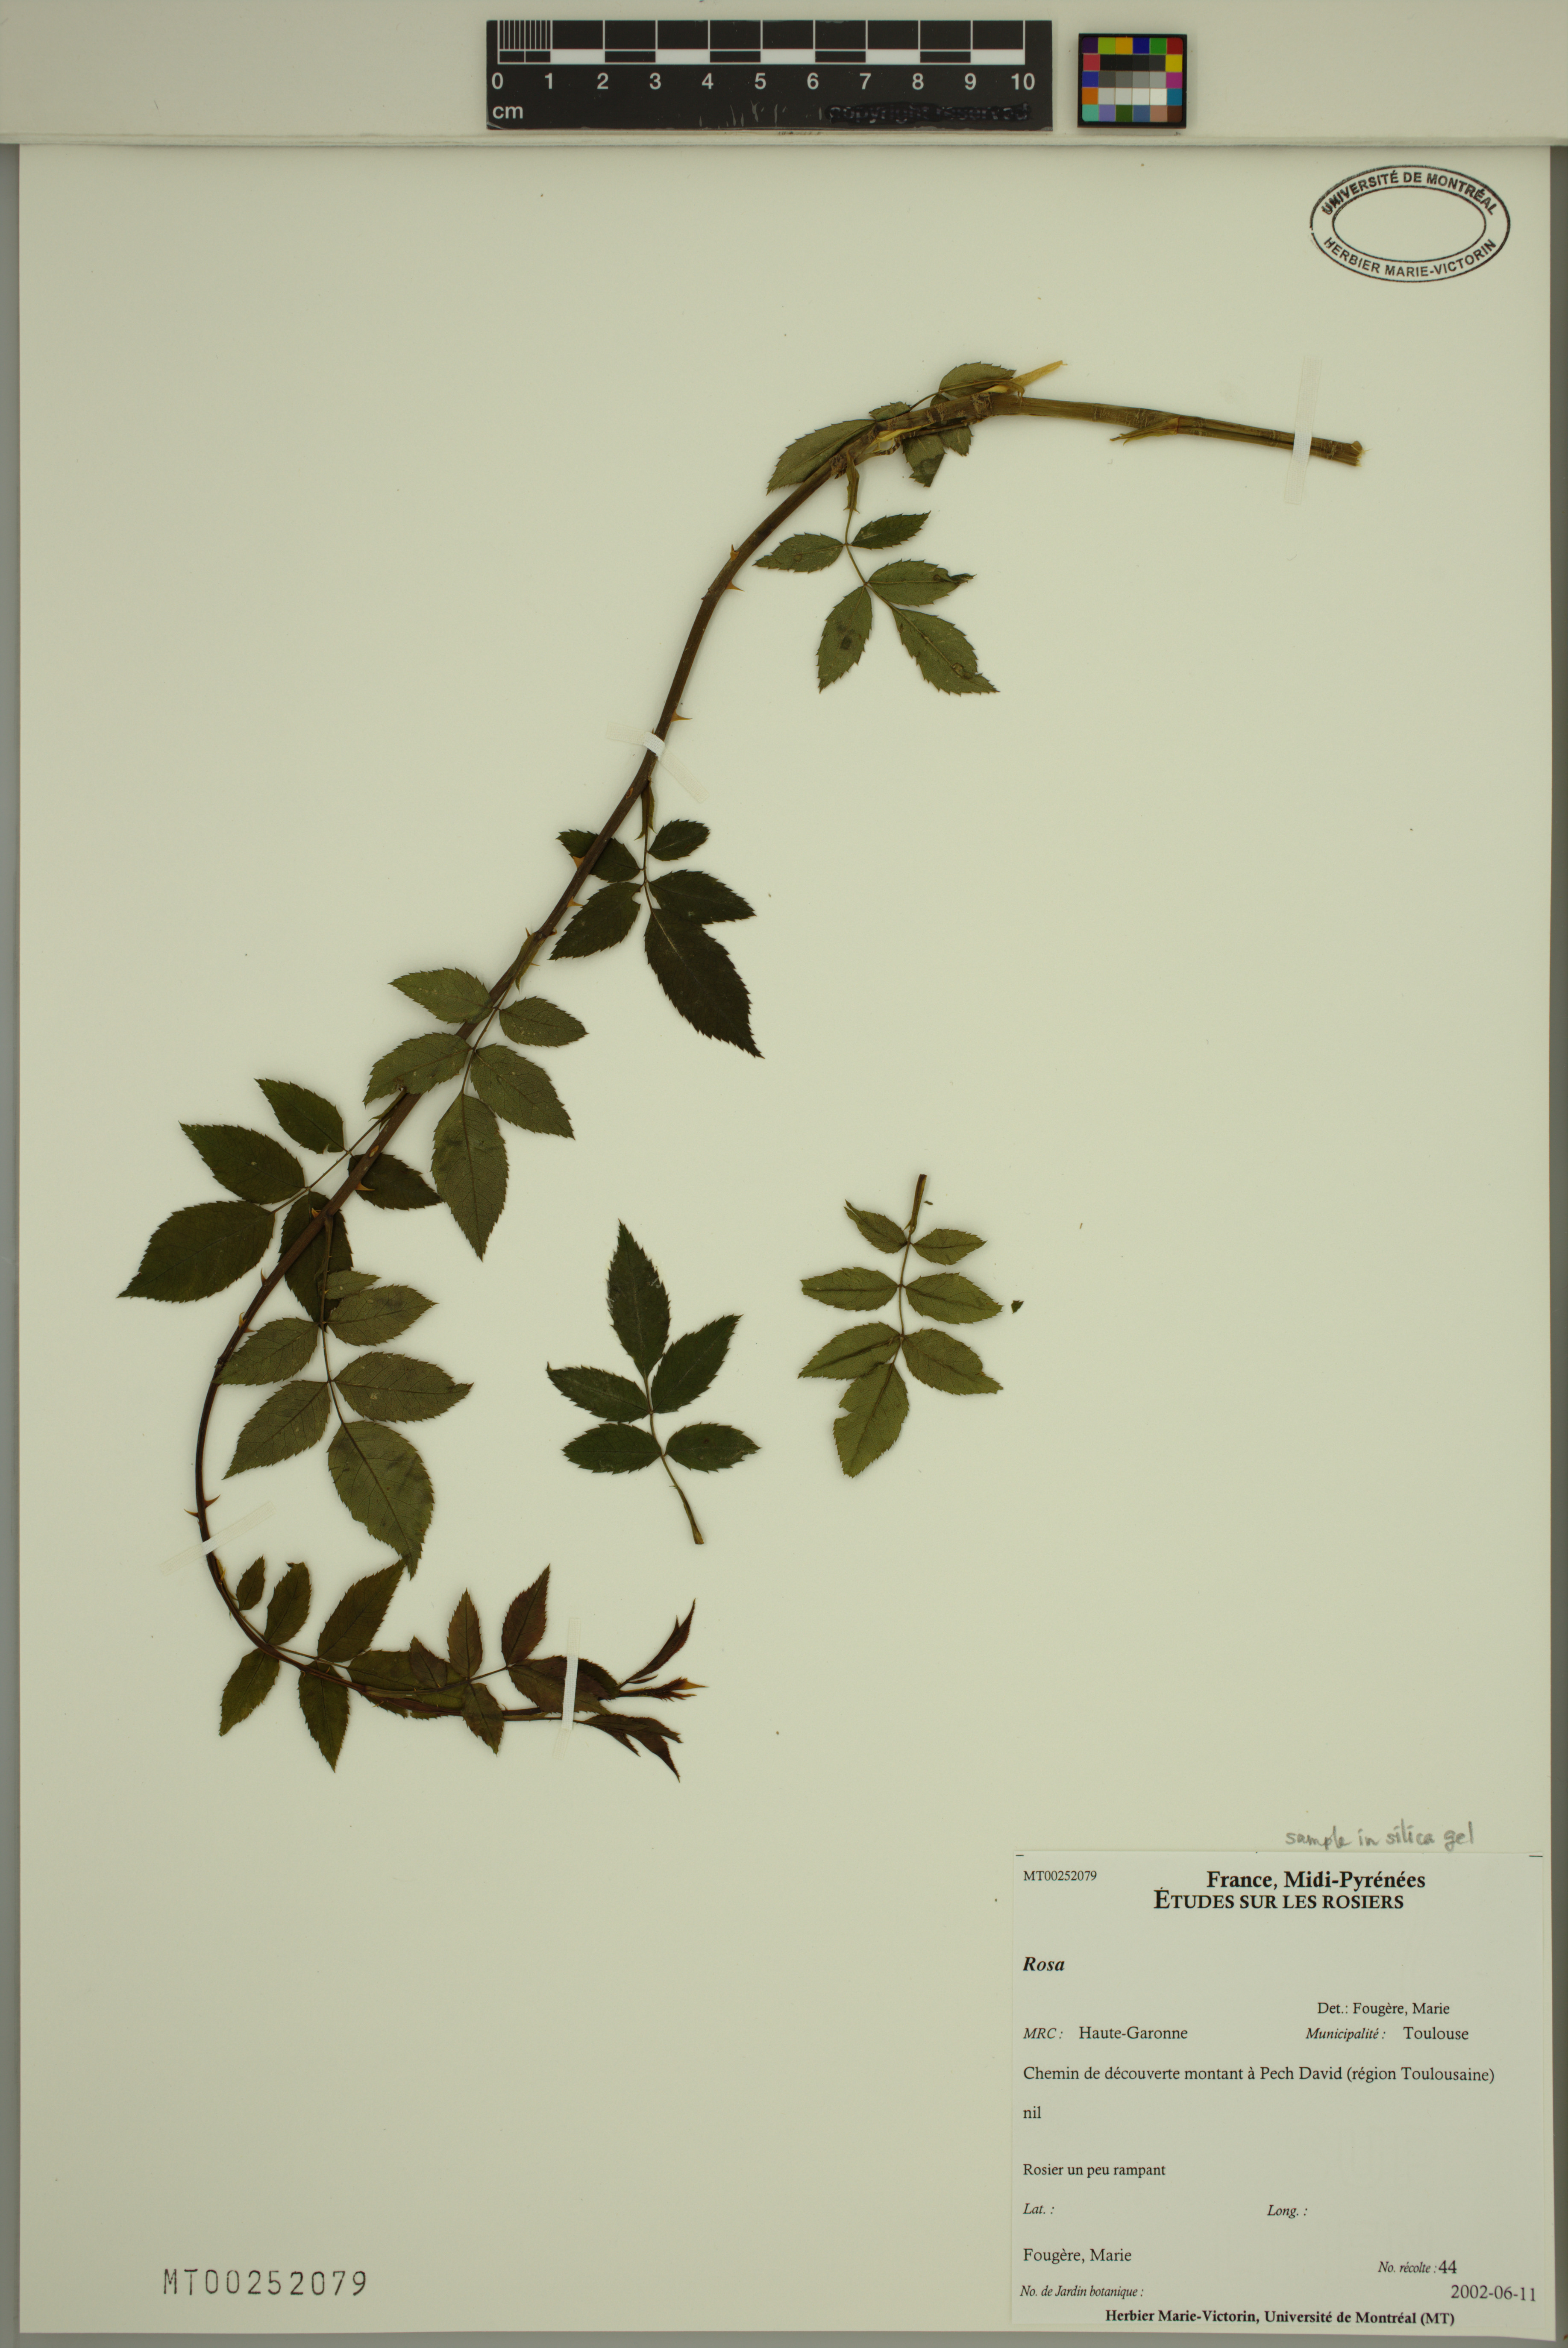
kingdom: Plantae
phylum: Tracheophyta
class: Magnoliopsida
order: Rosales
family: Rosaceae
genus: Rosa
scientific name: Rosa
